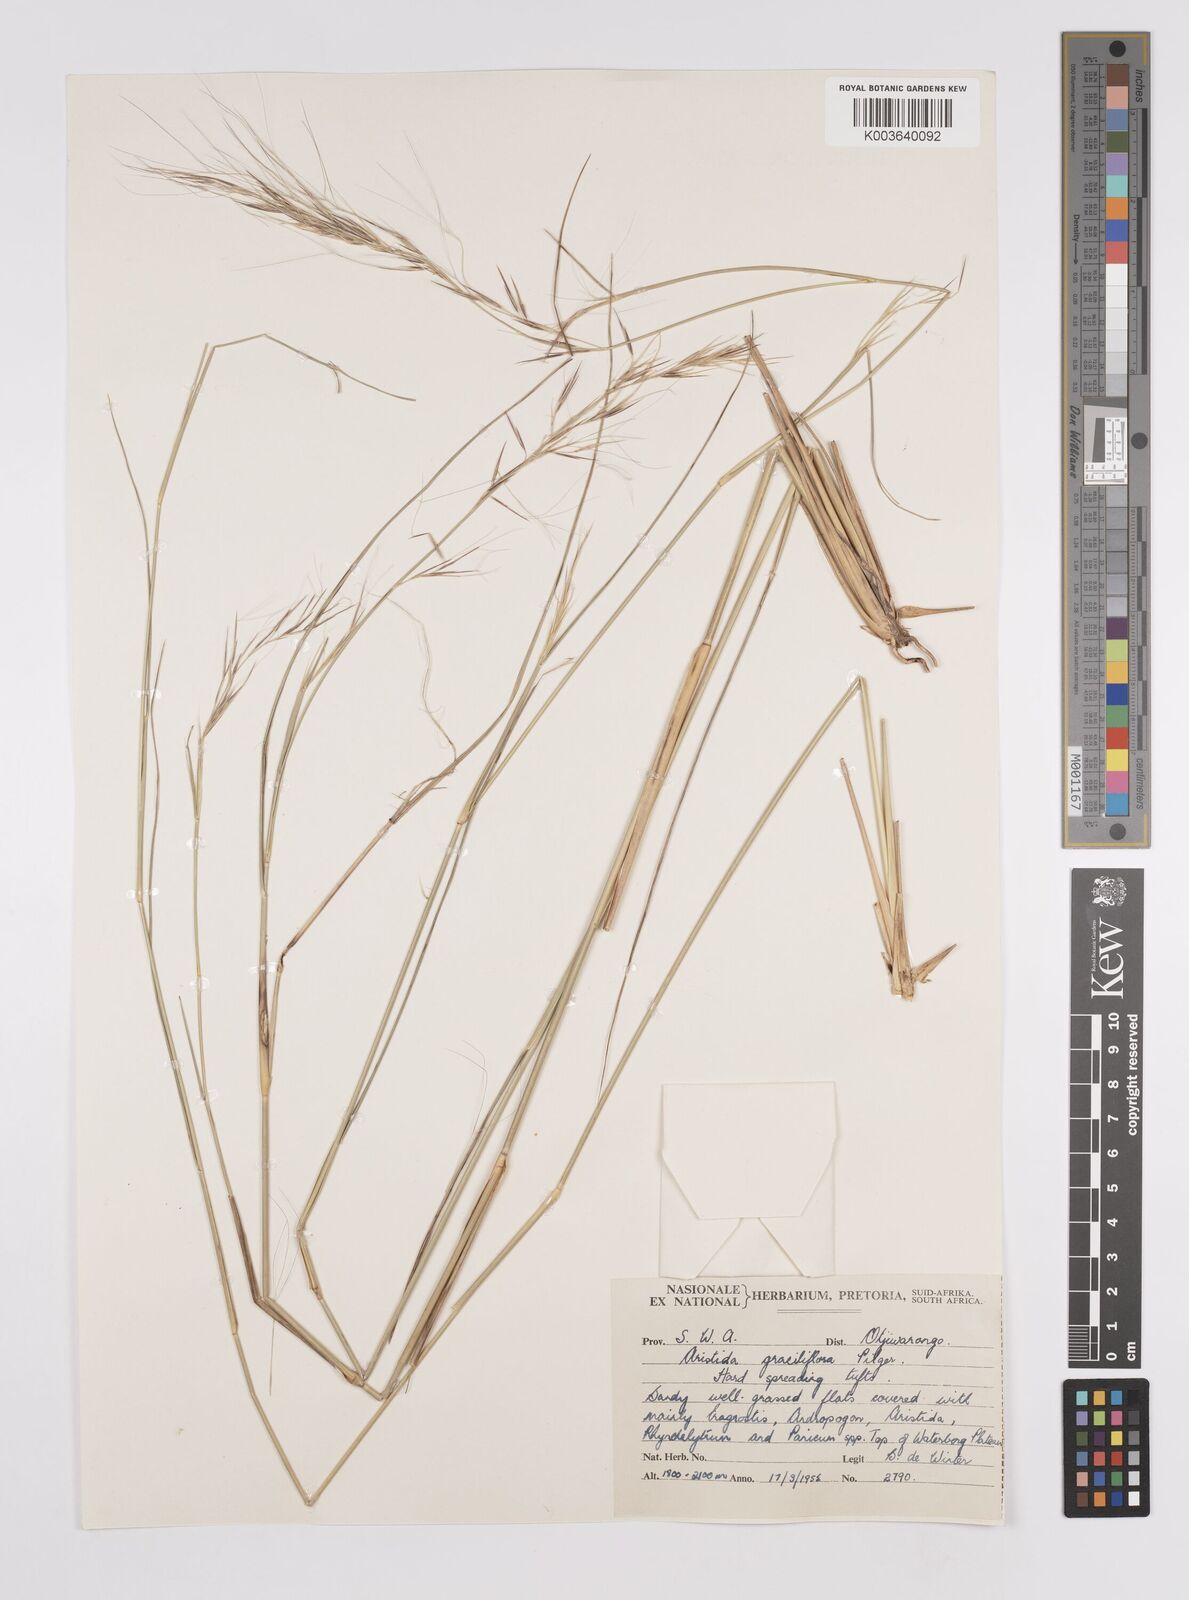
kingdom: Plantae
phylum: Tracheophyta
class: Liliopsida
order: Poales
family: Poaceae
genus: Aristida
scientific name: Aristida stipitata
